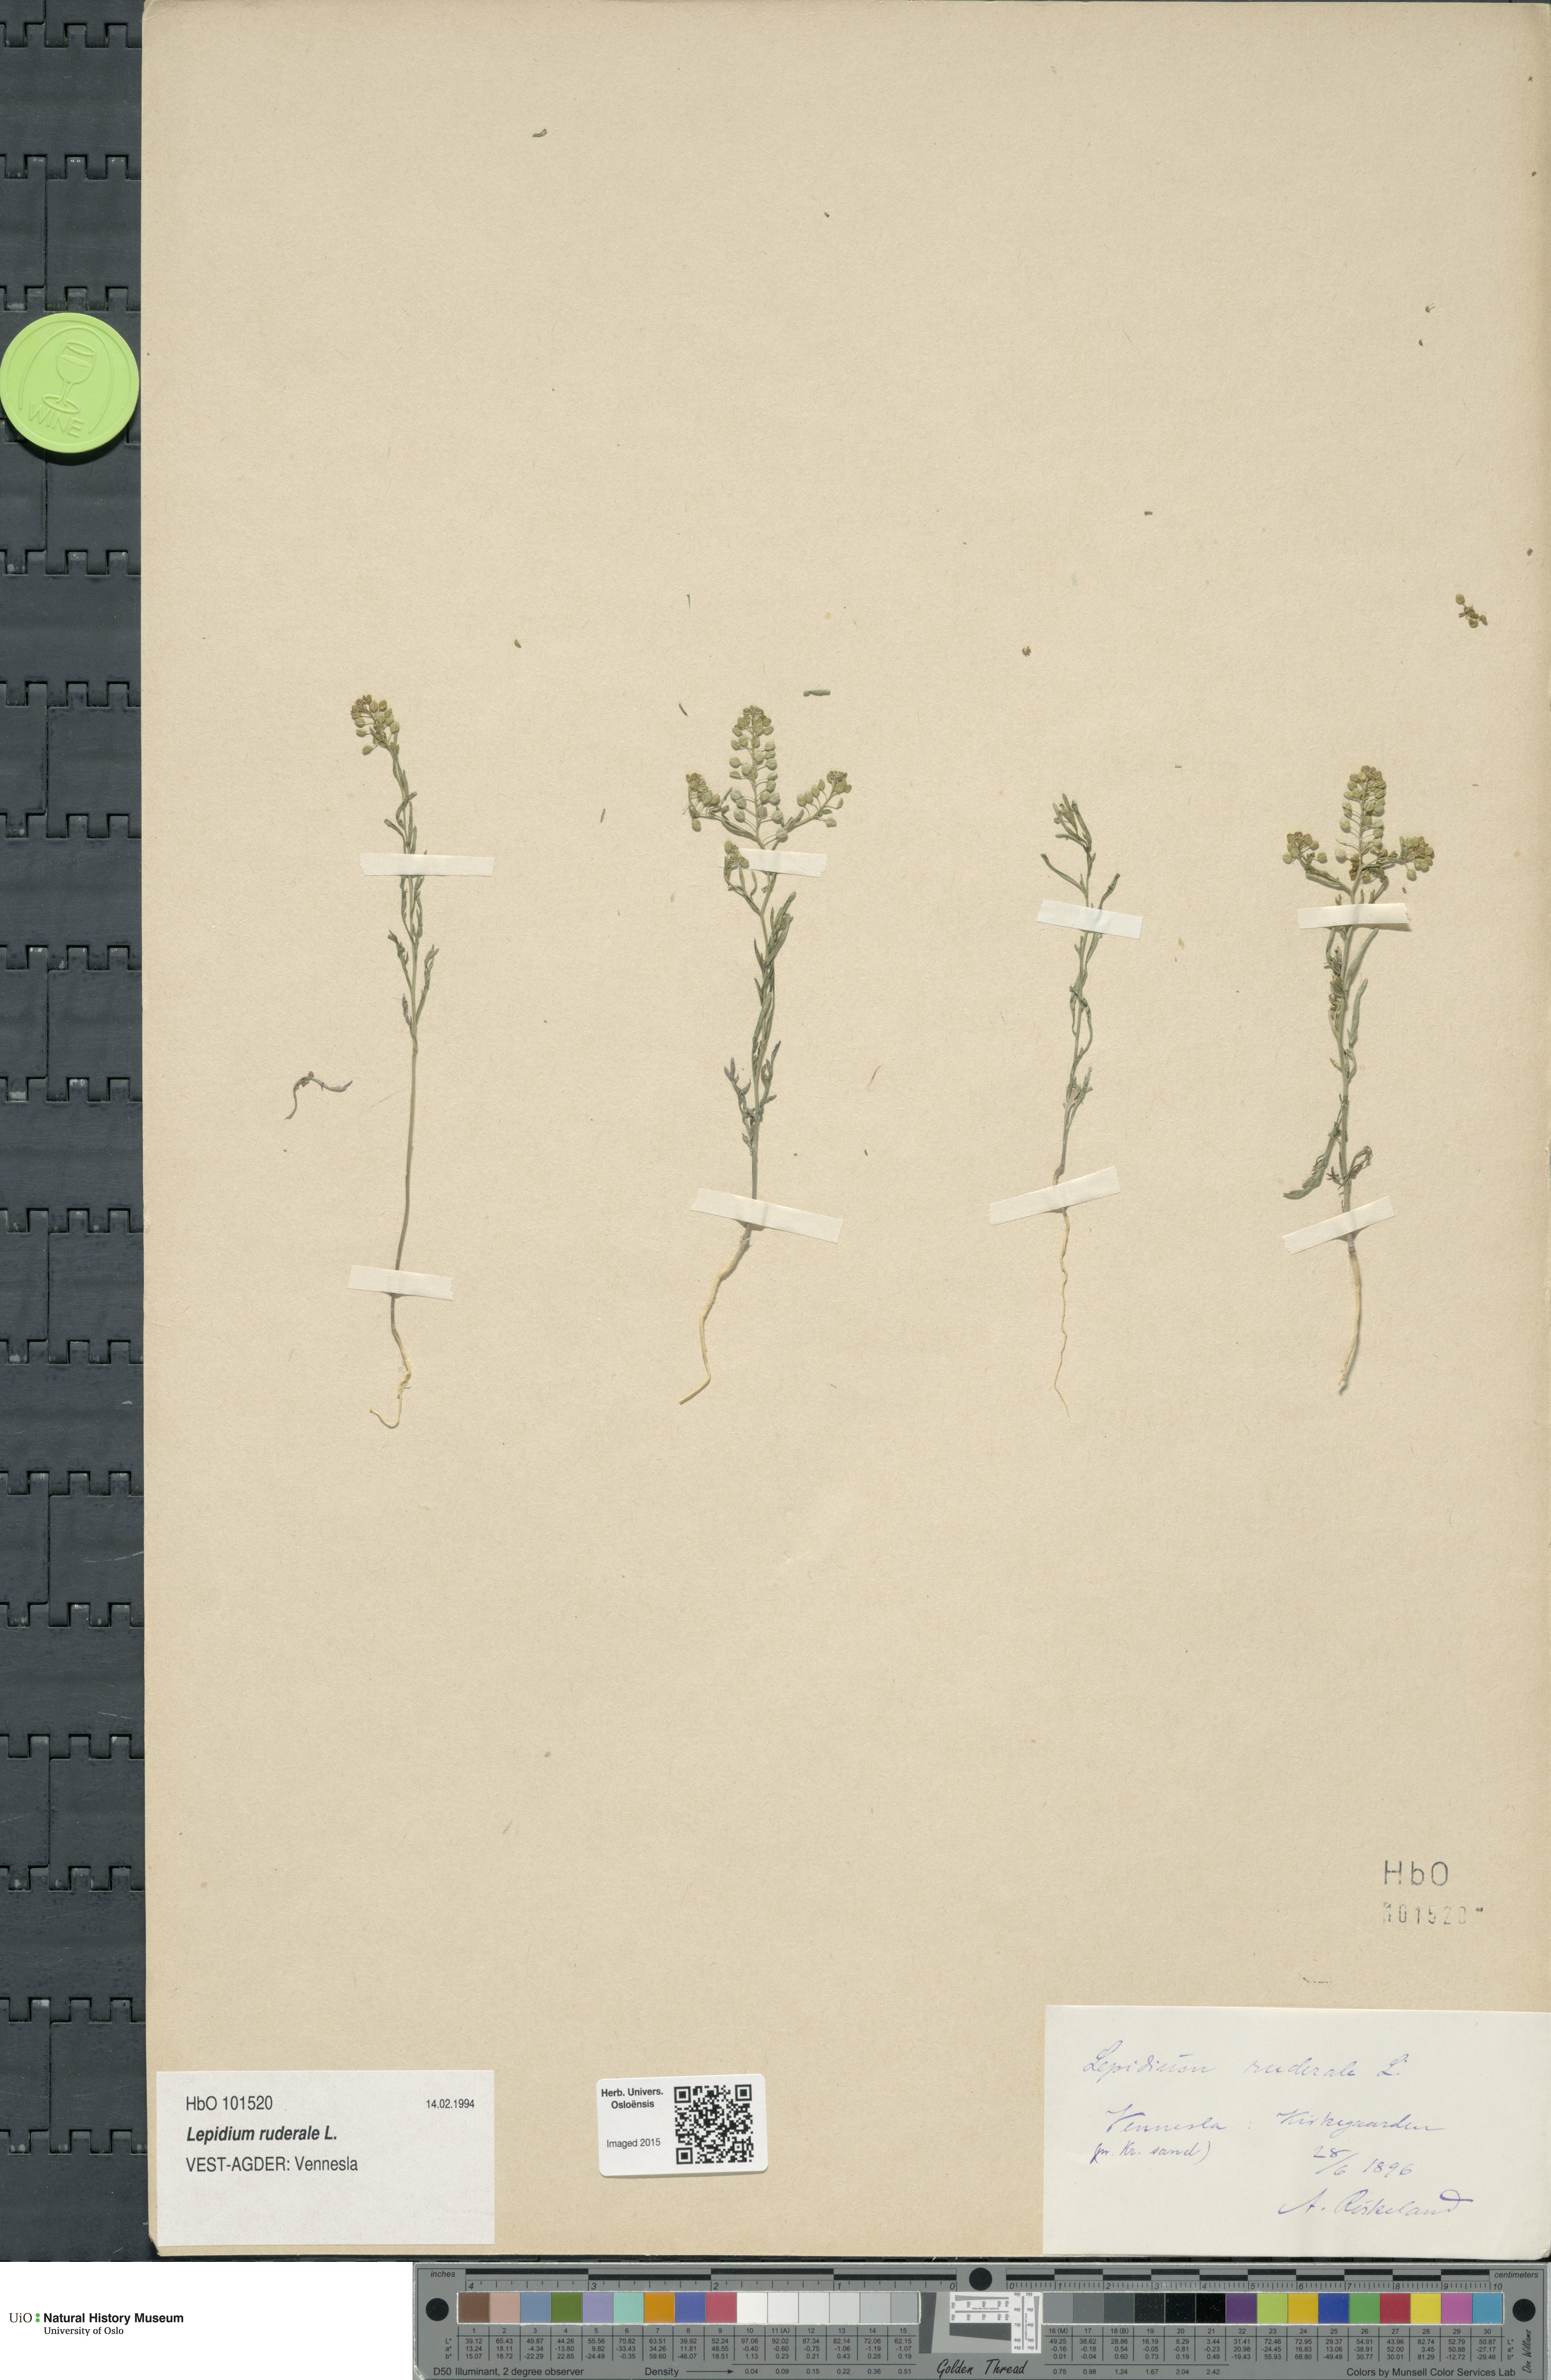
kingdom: Plantae
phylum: Tracheophyta
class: Magnoliopsida
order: Brassicales
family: Brassicaceae
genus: Lepidium
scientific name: Lepidium ruderale
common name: Narrow-leaved pepperwort
